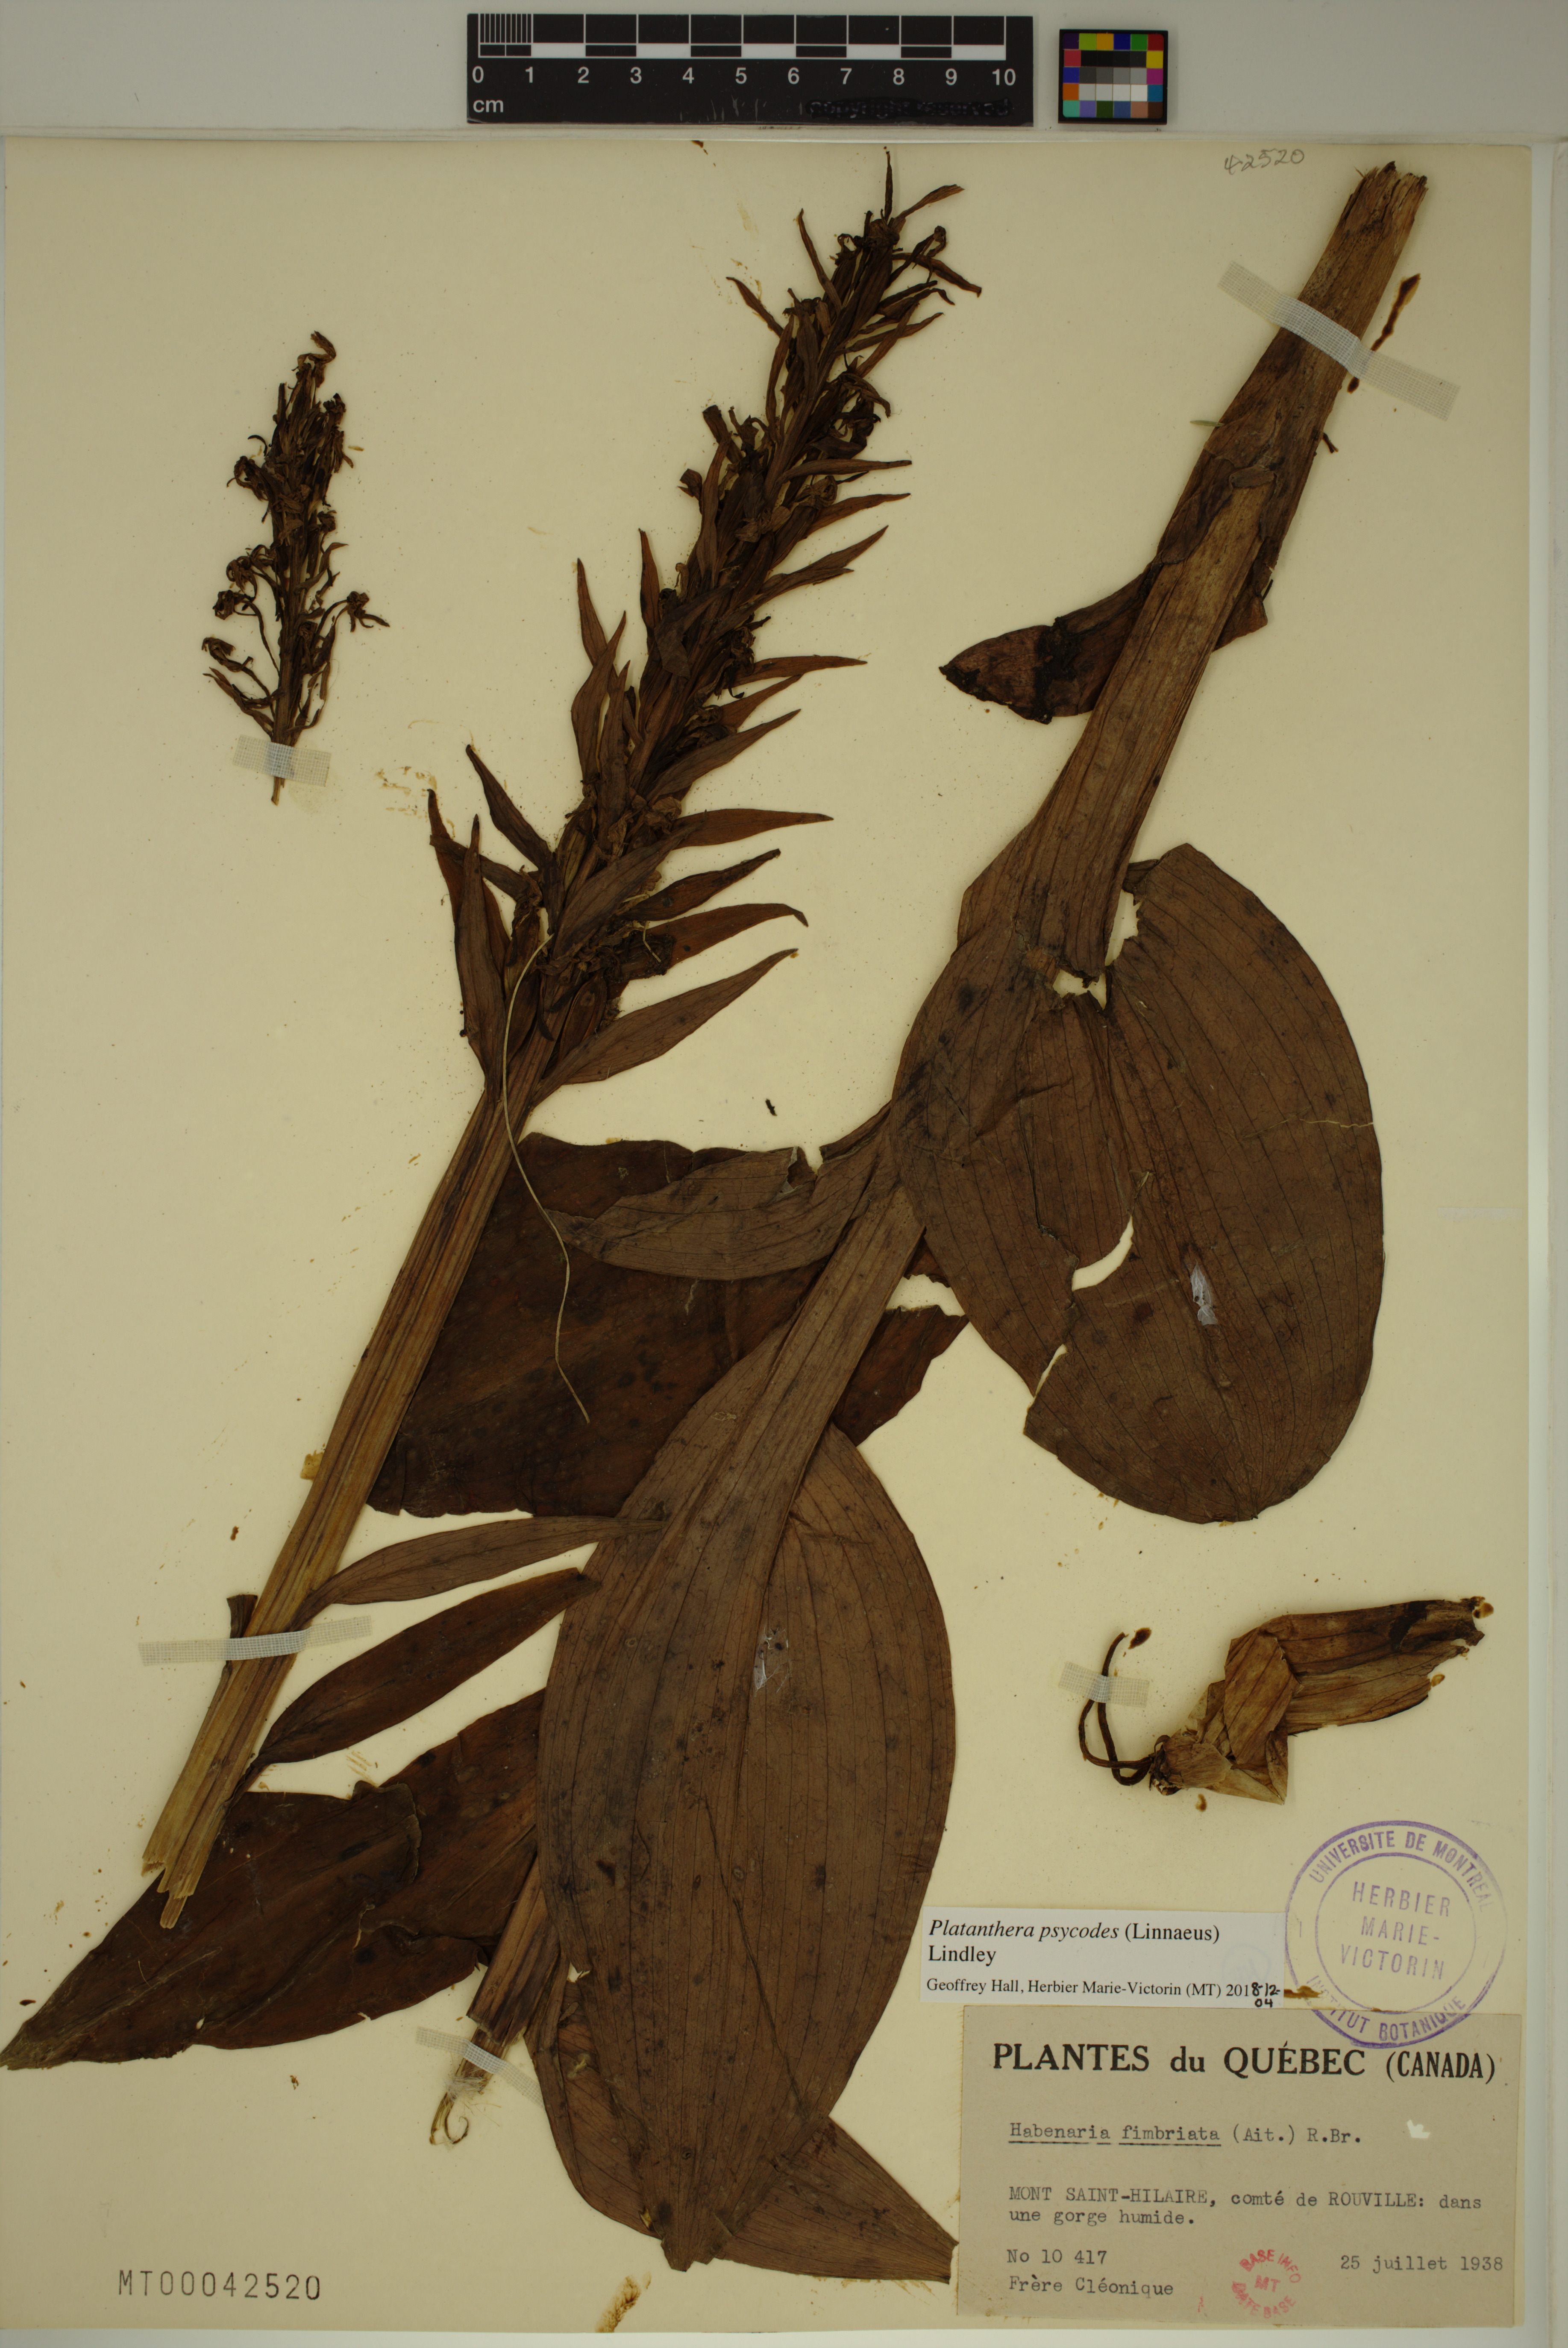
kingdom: Plantae
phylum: Tracheophyta
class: Liliopsida
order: Asparagales
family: Orchidaceae
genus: Platanthera
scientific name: Platanthera psycodes
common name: Lesser purple fringed orchid
